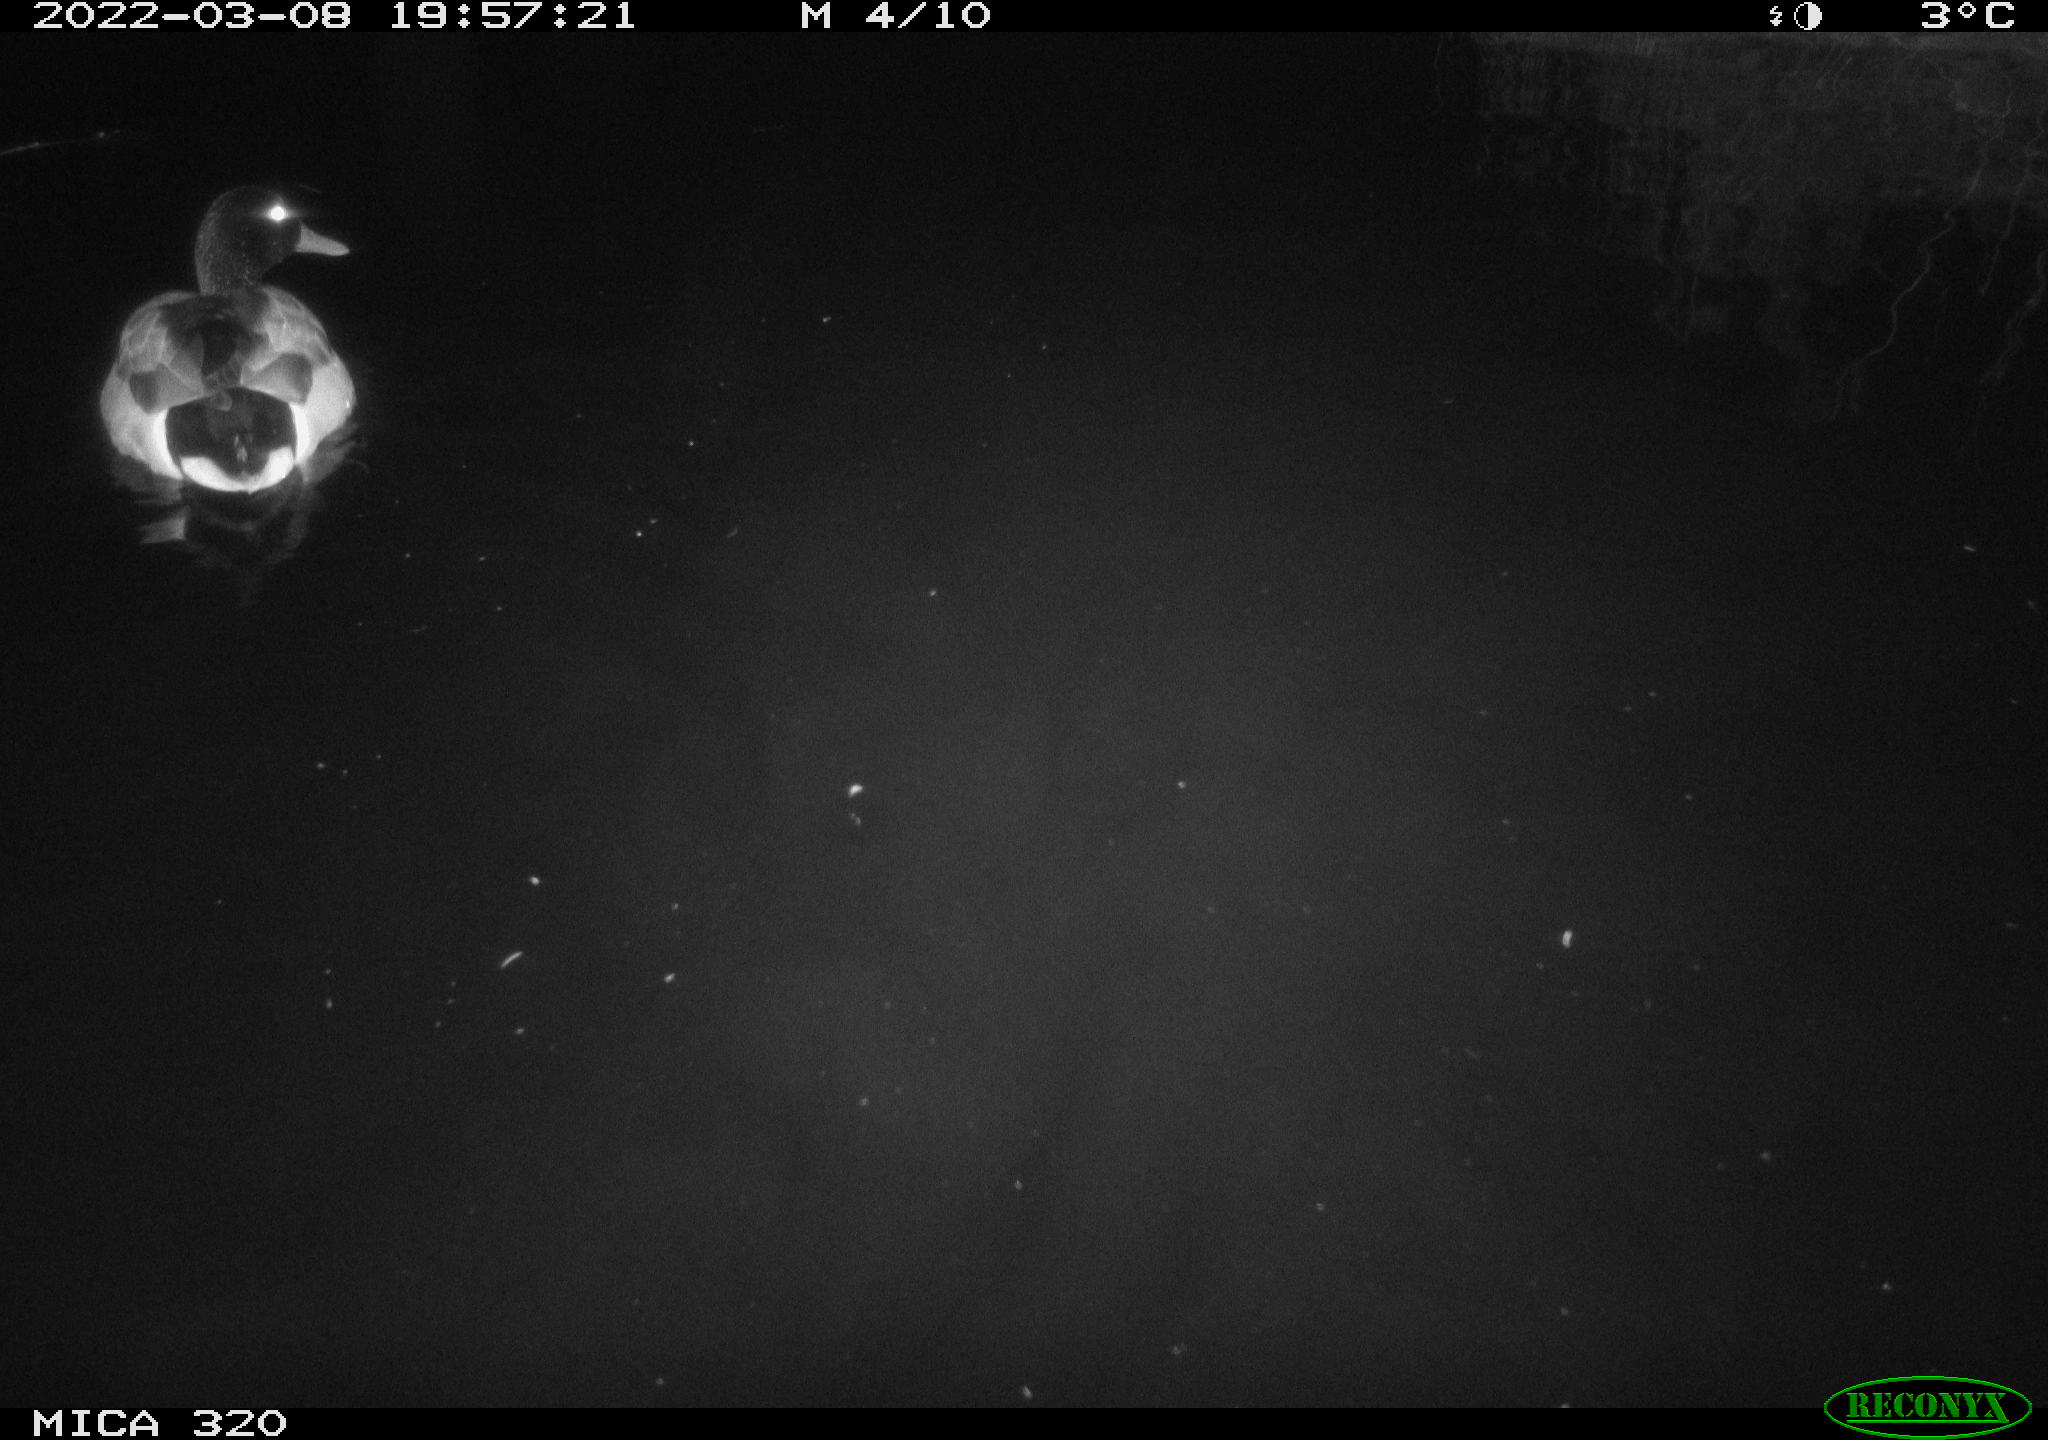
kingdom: Animalia
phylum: Chordata
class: Aves
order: Anseriformes
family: Anatidae
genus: Anas
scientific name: Anas platyrhynchos
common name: Mallard
